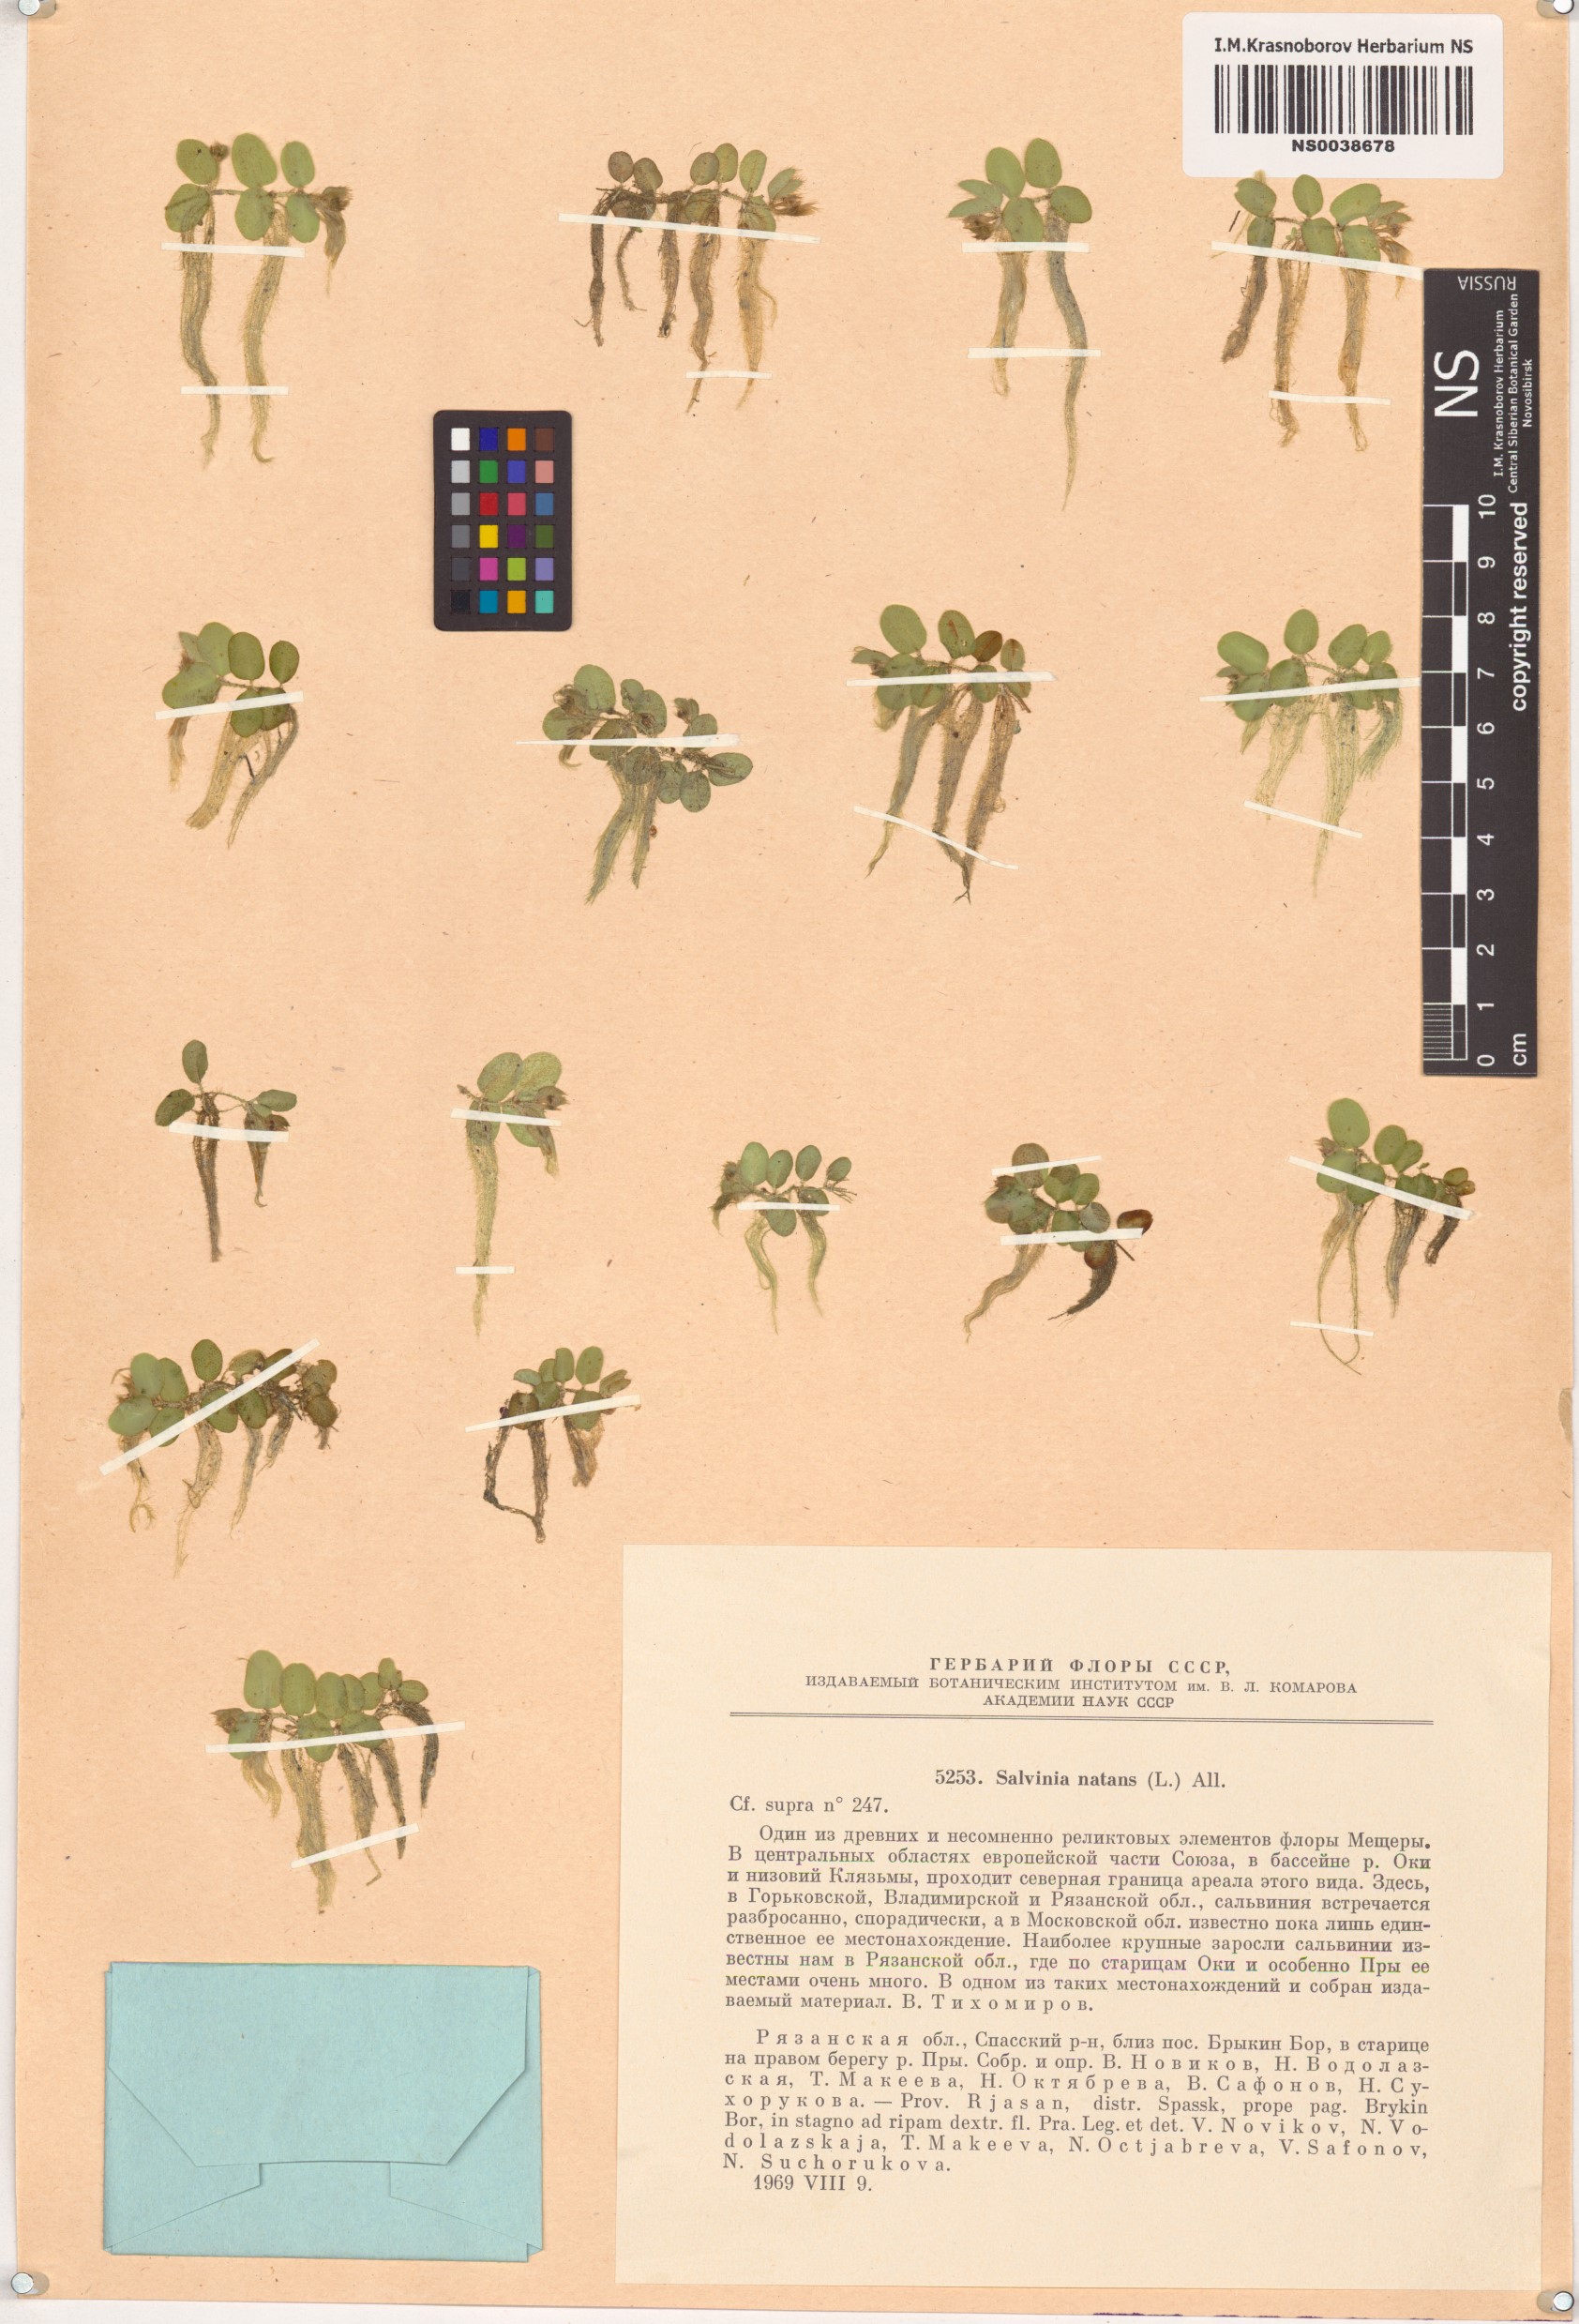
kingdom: Plantae
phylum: Tracheophyta
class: Polypodiopsida
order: Salviniales
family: Salviniaceae
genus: Salvinia
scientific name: Salvinia natans
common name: Floating fern
